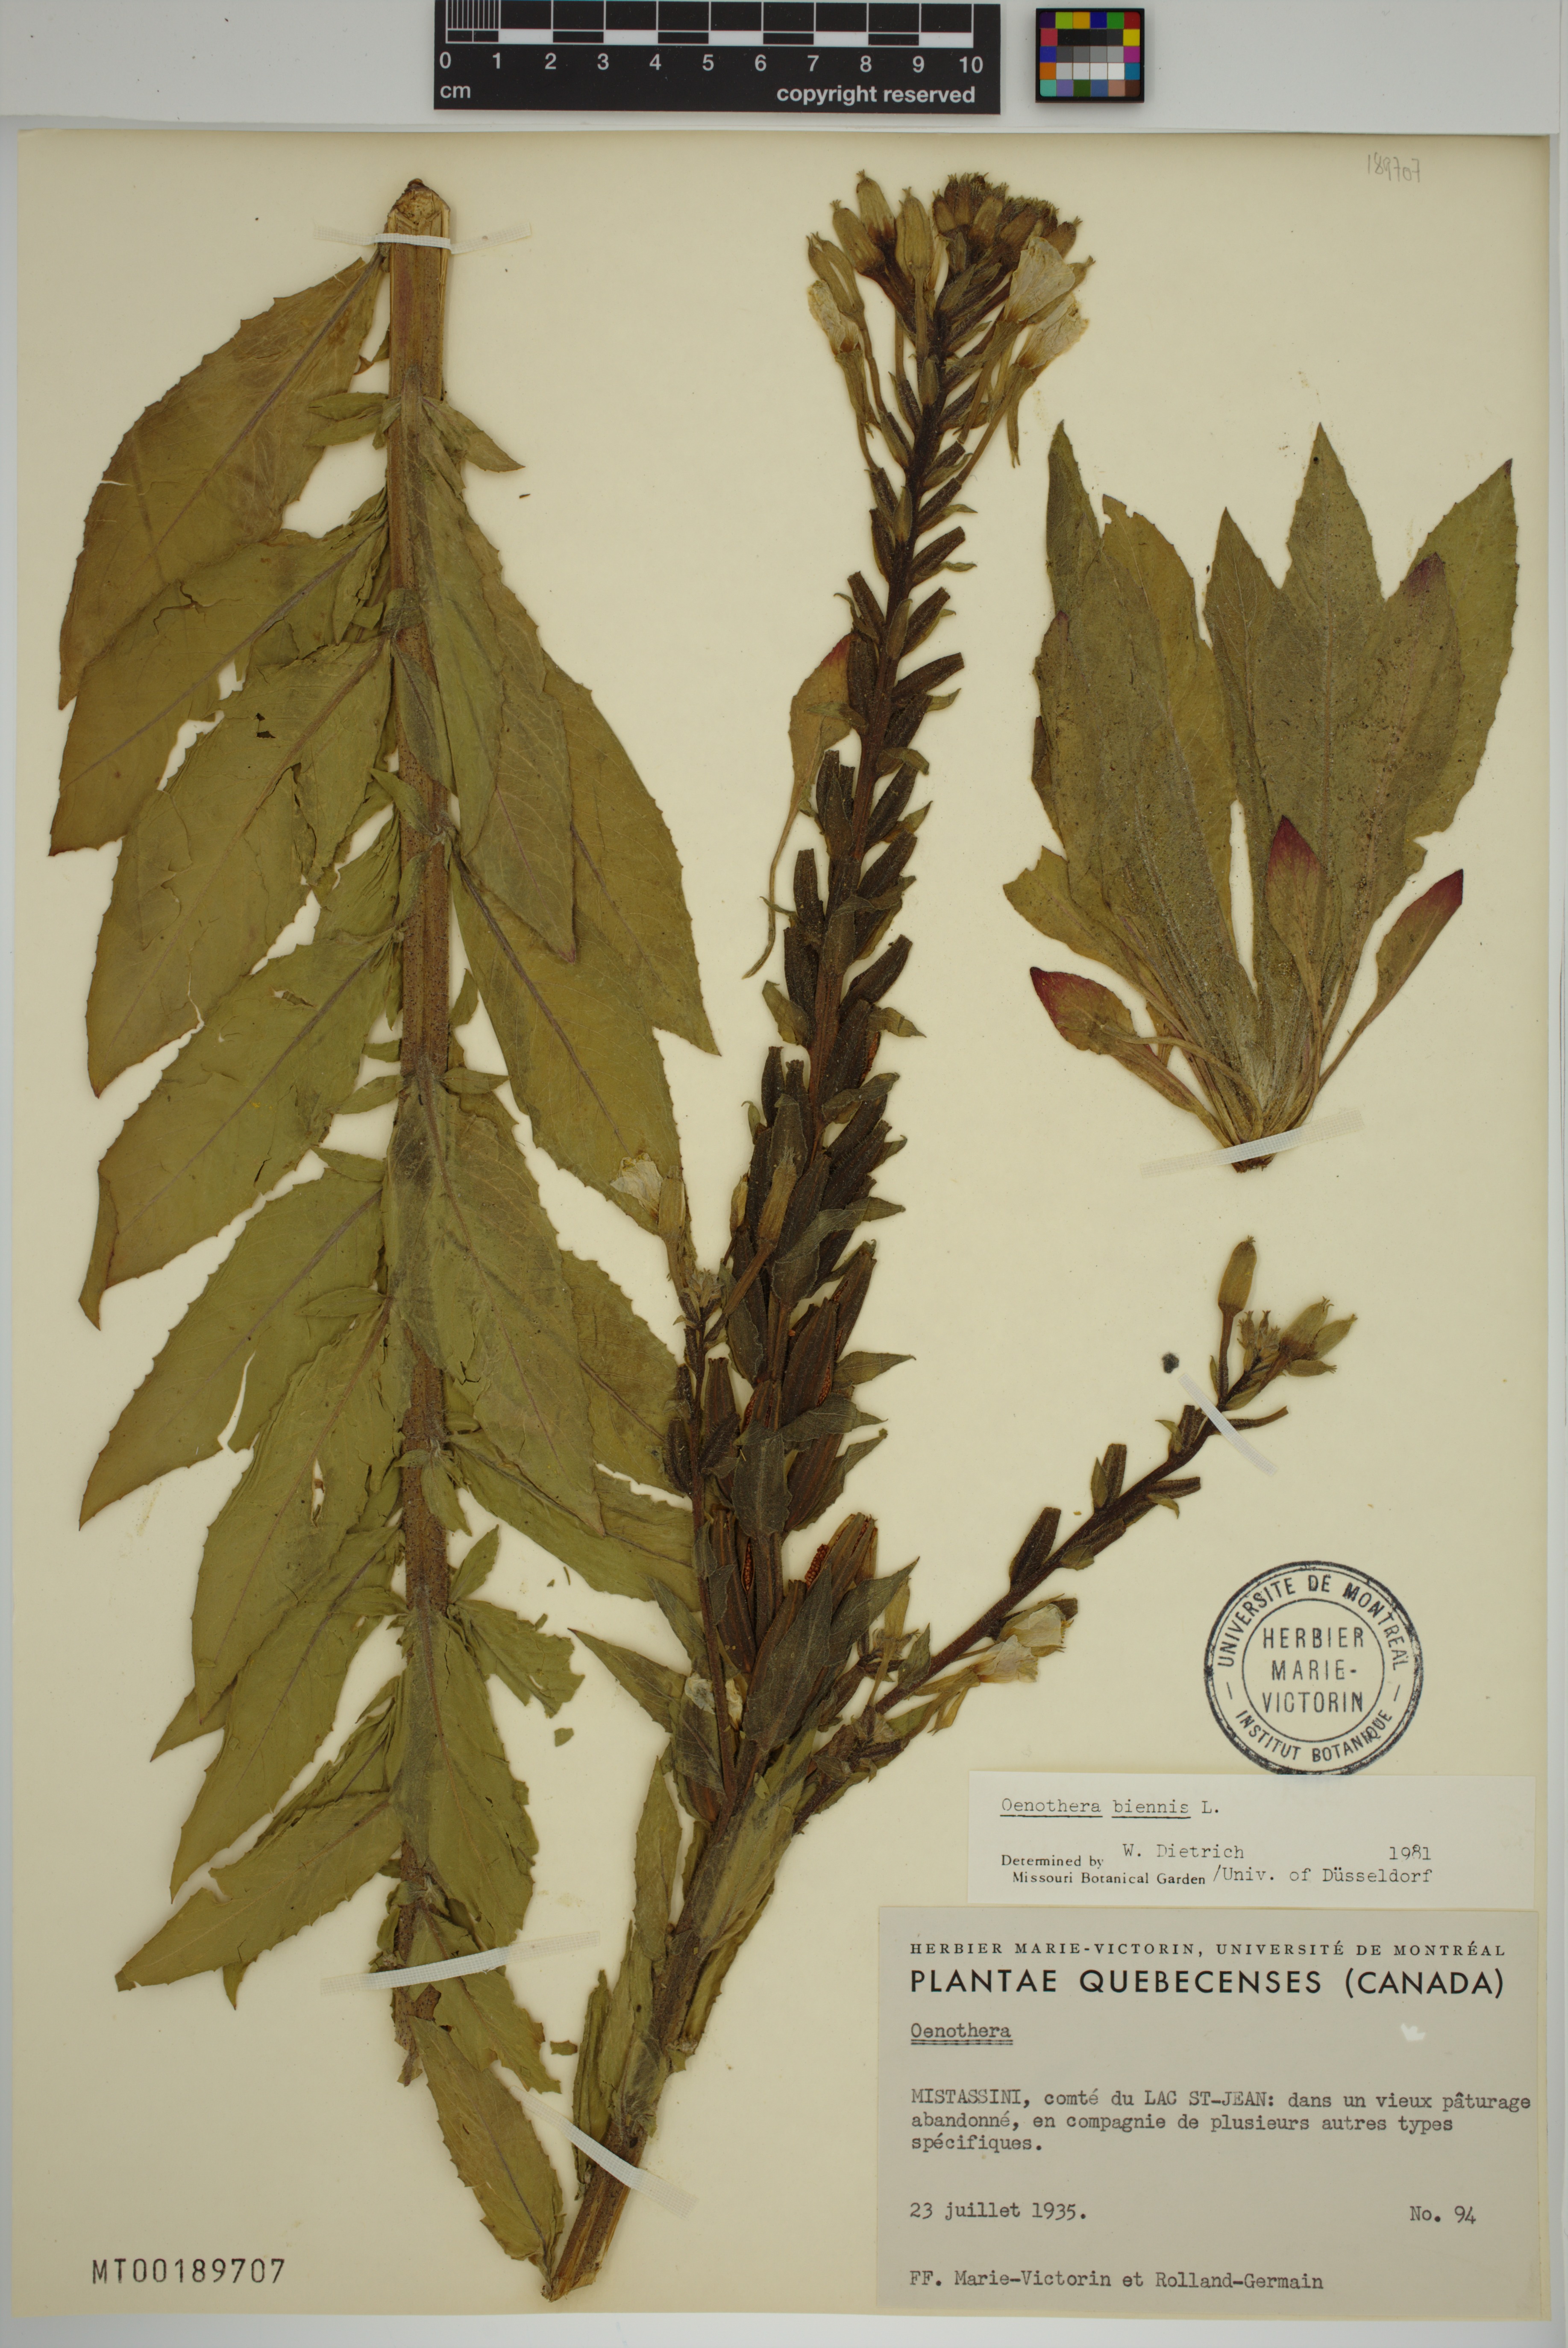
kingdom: Plantae
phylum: Tracheophyta
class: Magnoliopsida
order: Myrtales
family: Onagraceae
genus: Oenothera
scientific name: Oenothera biennis
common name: Common evening-primrose
